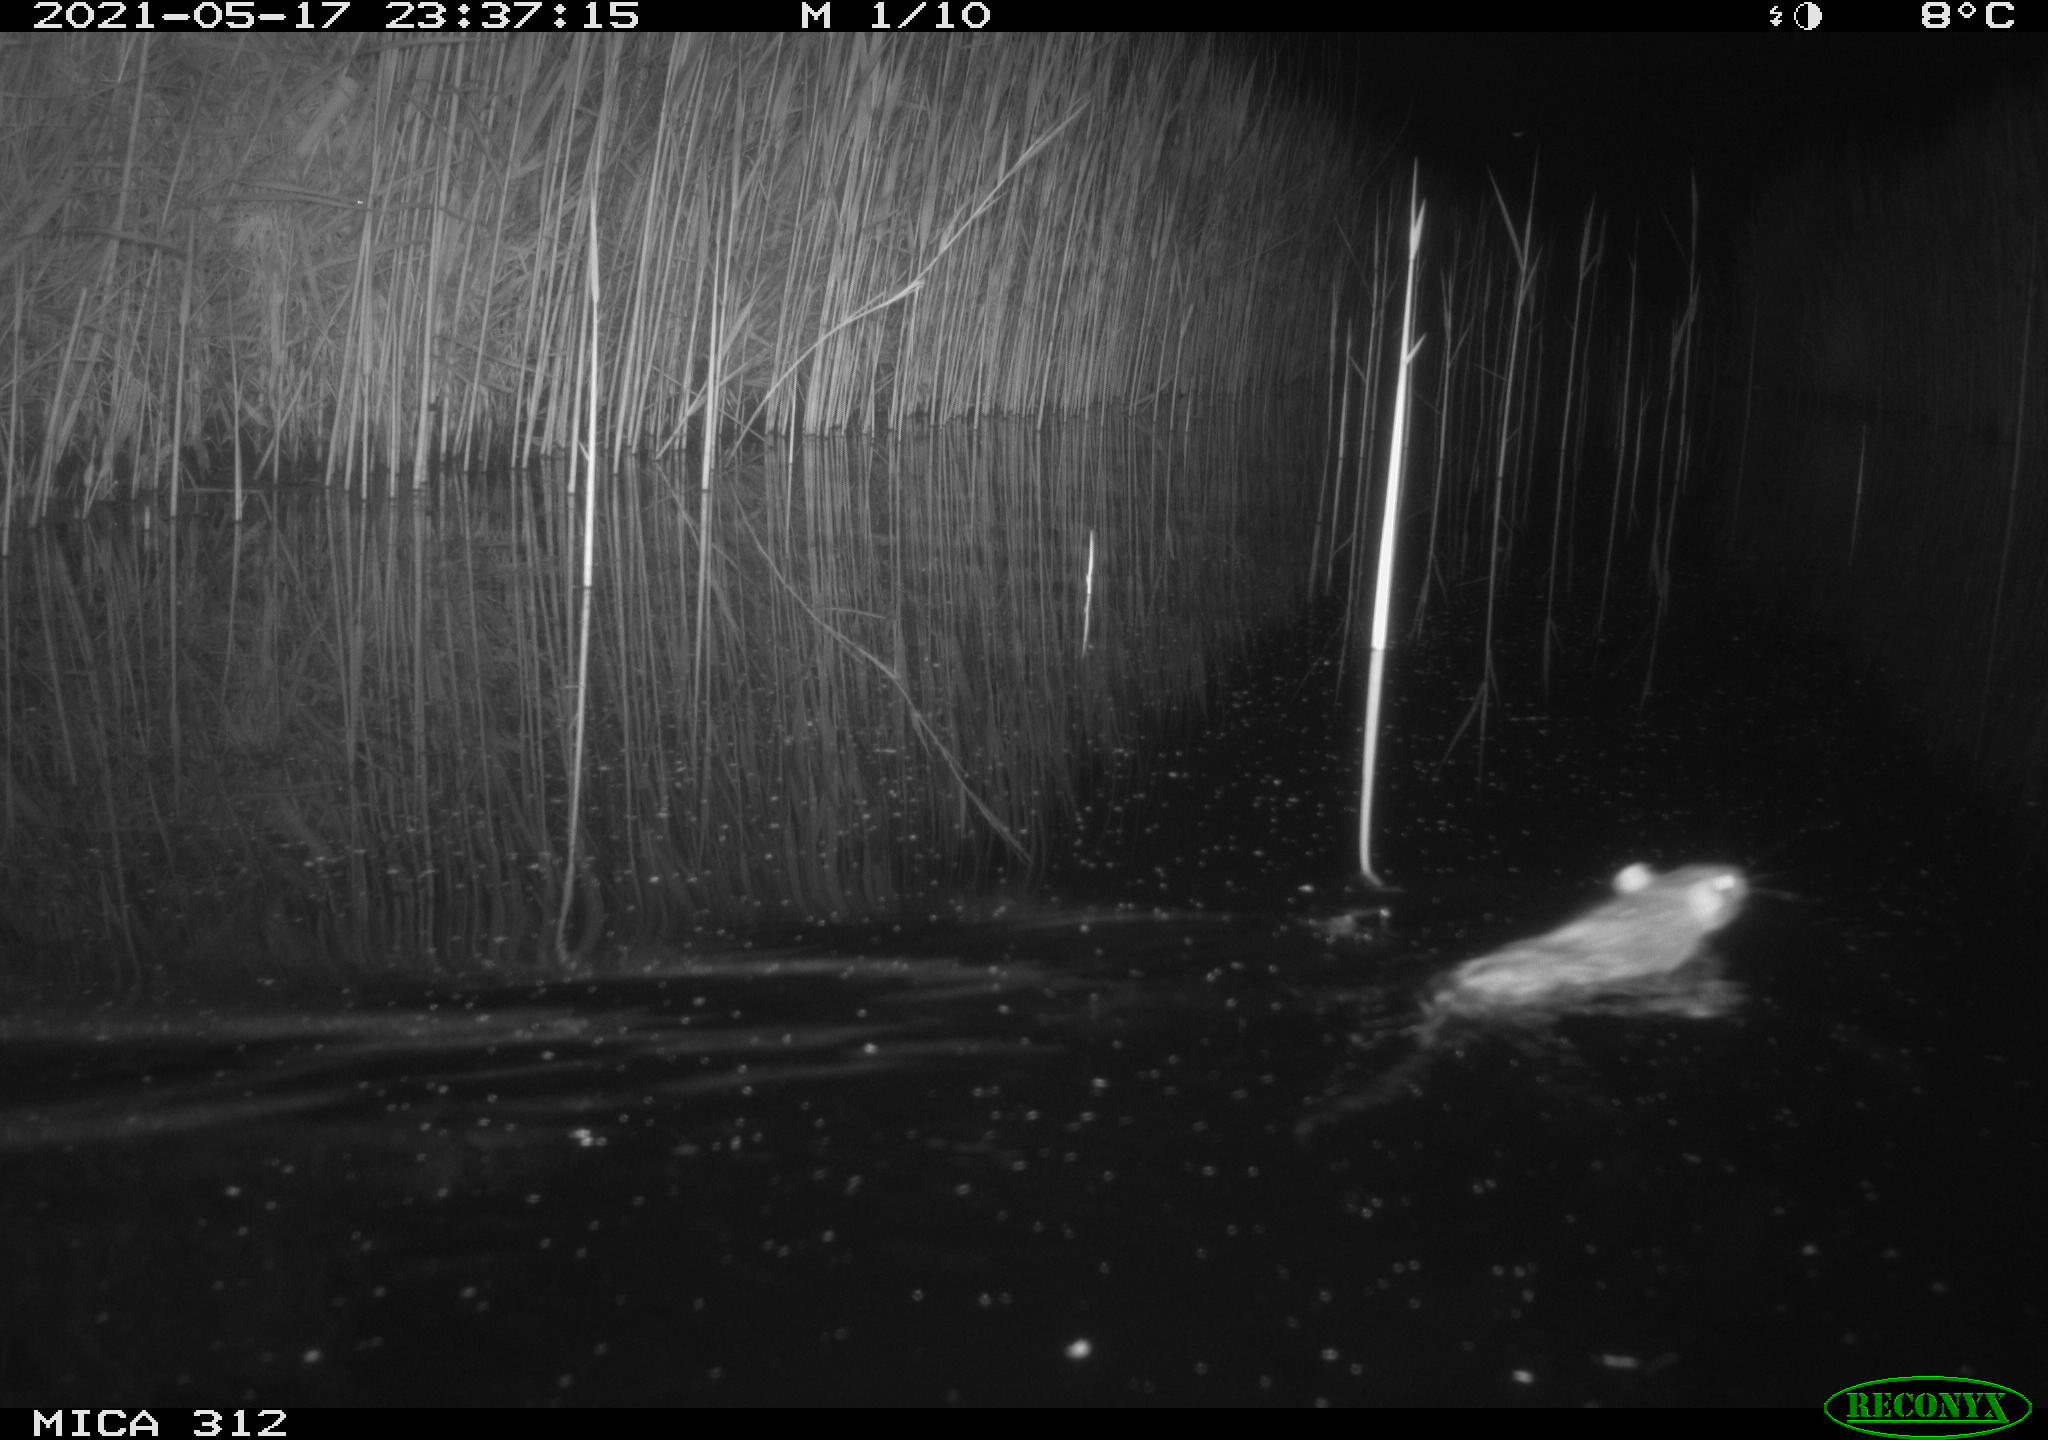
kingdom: Animalia
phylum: Chordata
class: Mammalia
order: Rodentia
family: Muridae
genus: Rattus
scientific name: Rattus norvegicus
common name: Brown rat
